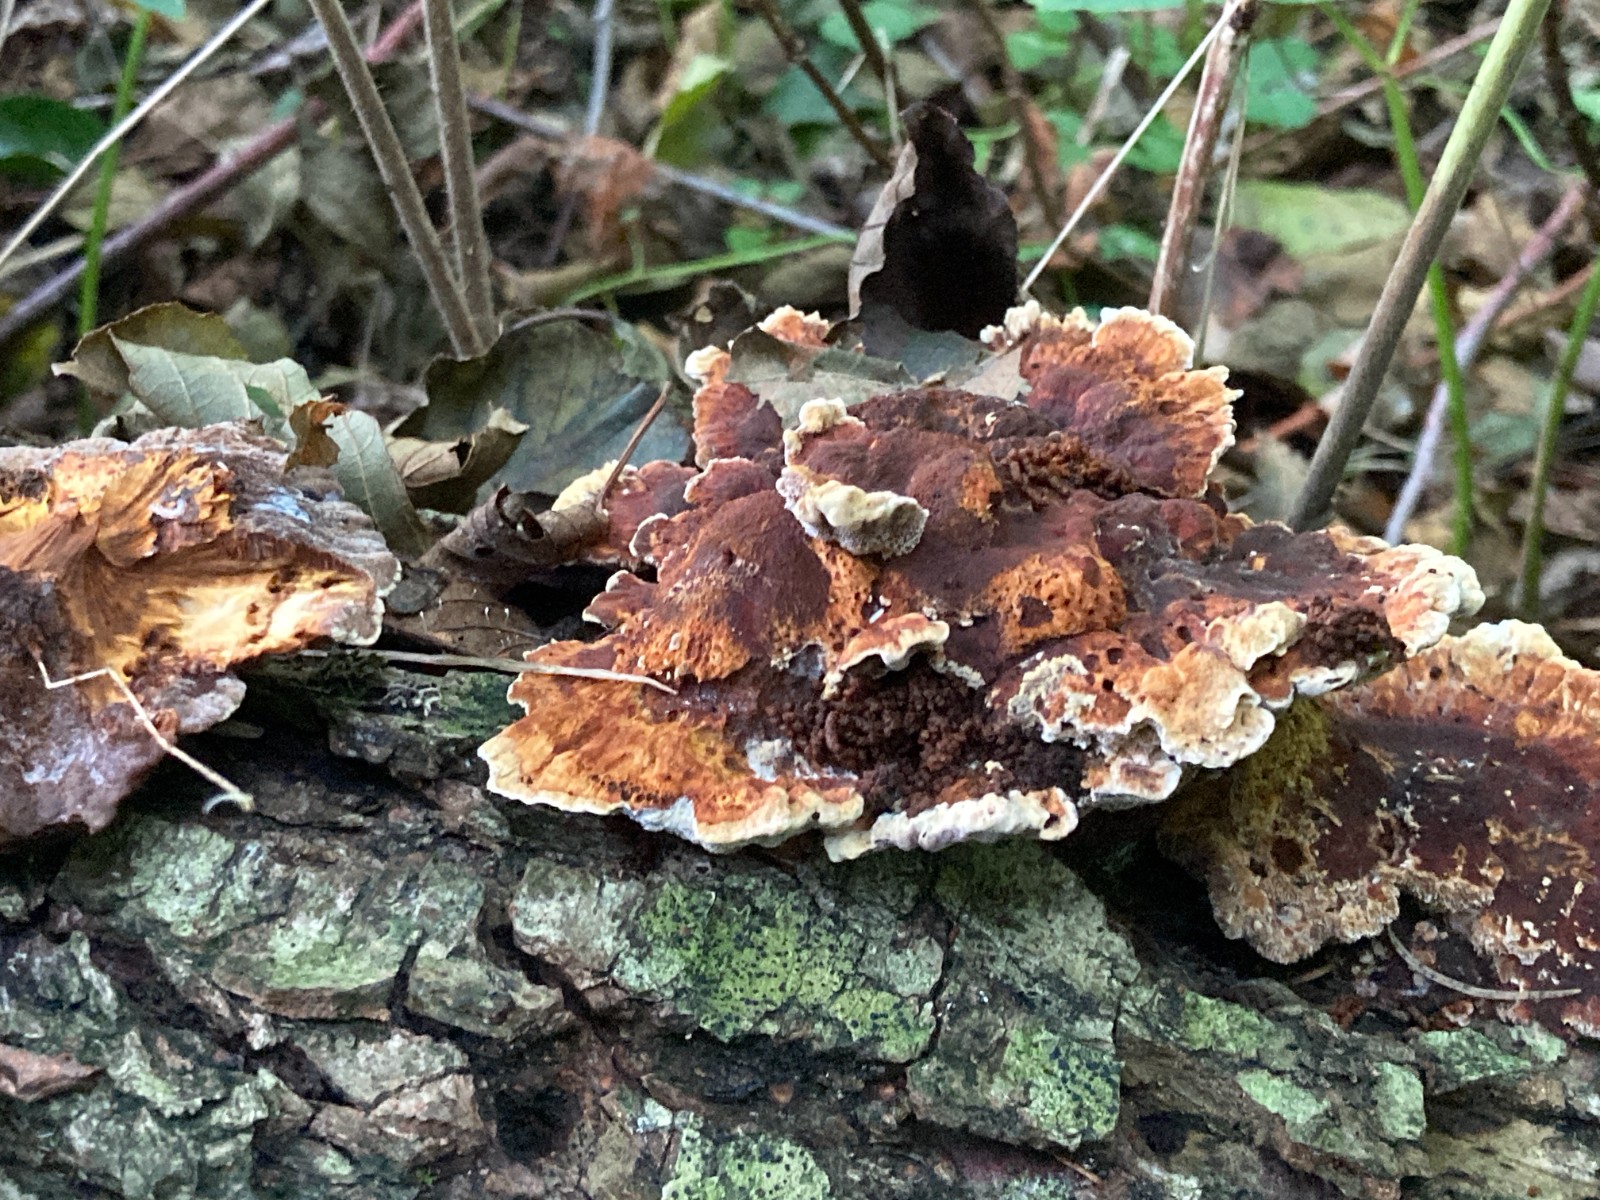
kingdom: Fungi
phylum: Basidiomycota
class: Agaricomycetes
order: Hymenochaetales
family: Hymenochaetaceae
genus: Mensularia
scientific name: Mensularia nodulosa
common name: bøge-spejlporesvamp
